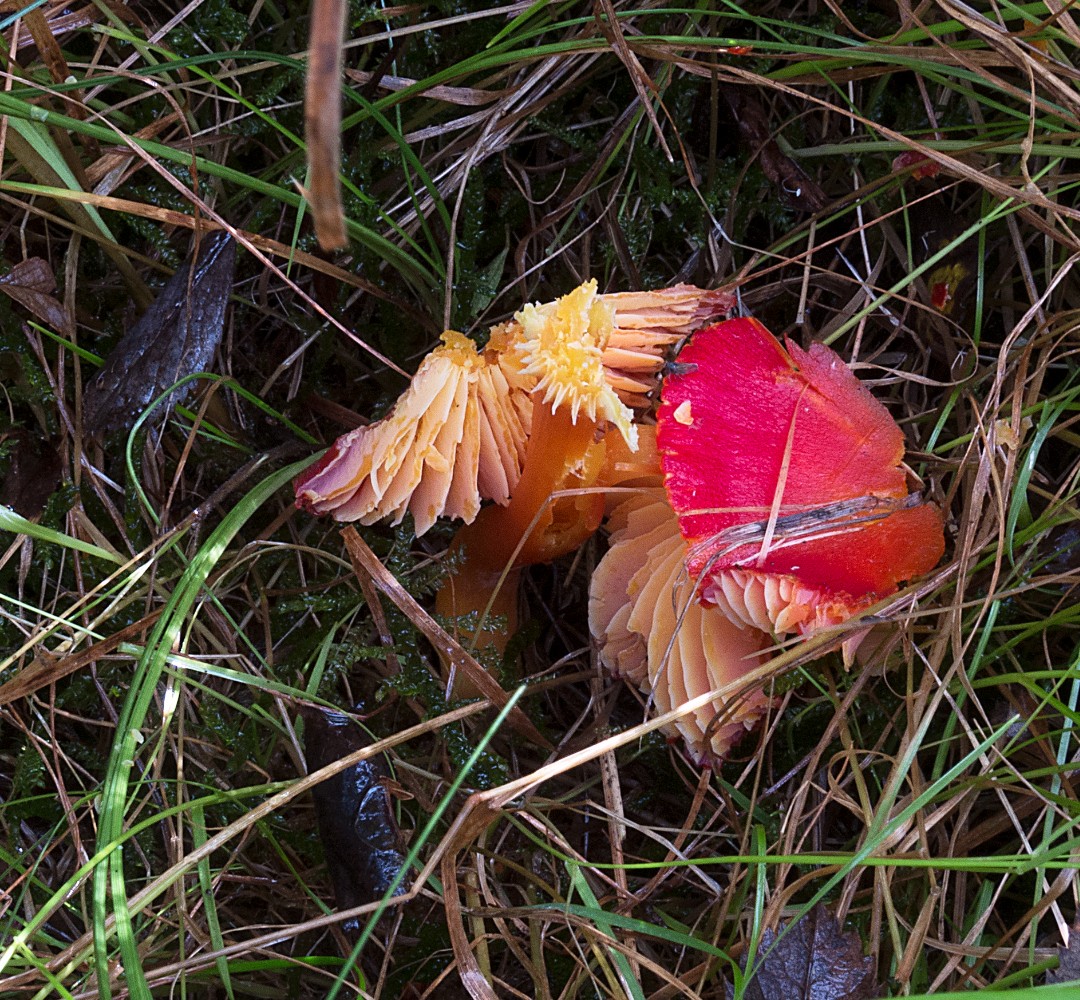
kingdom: Fungi
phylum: Basidiomycota
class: Agaricomycetes
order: Agaricales
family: Hygrophoraceae
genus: Hygrocybe
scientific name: Hygrocybe splendidissima
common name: knaldrød vokshat
